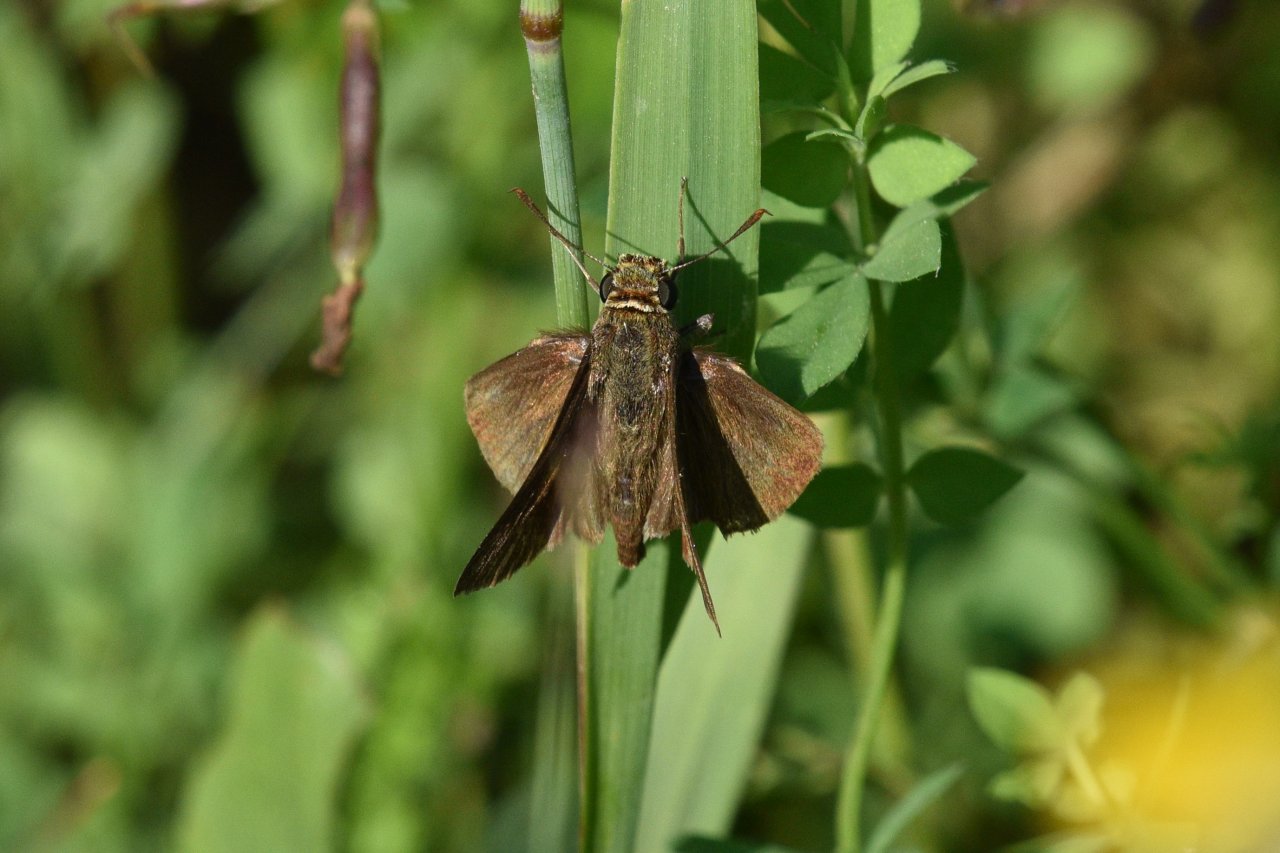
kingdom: Animalia
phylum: Arthropoda
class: Insecta
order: Lepidoptera
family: Hesperiidae
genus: Euphyes
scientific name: Euphyes vestris
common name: Dun Skipper
